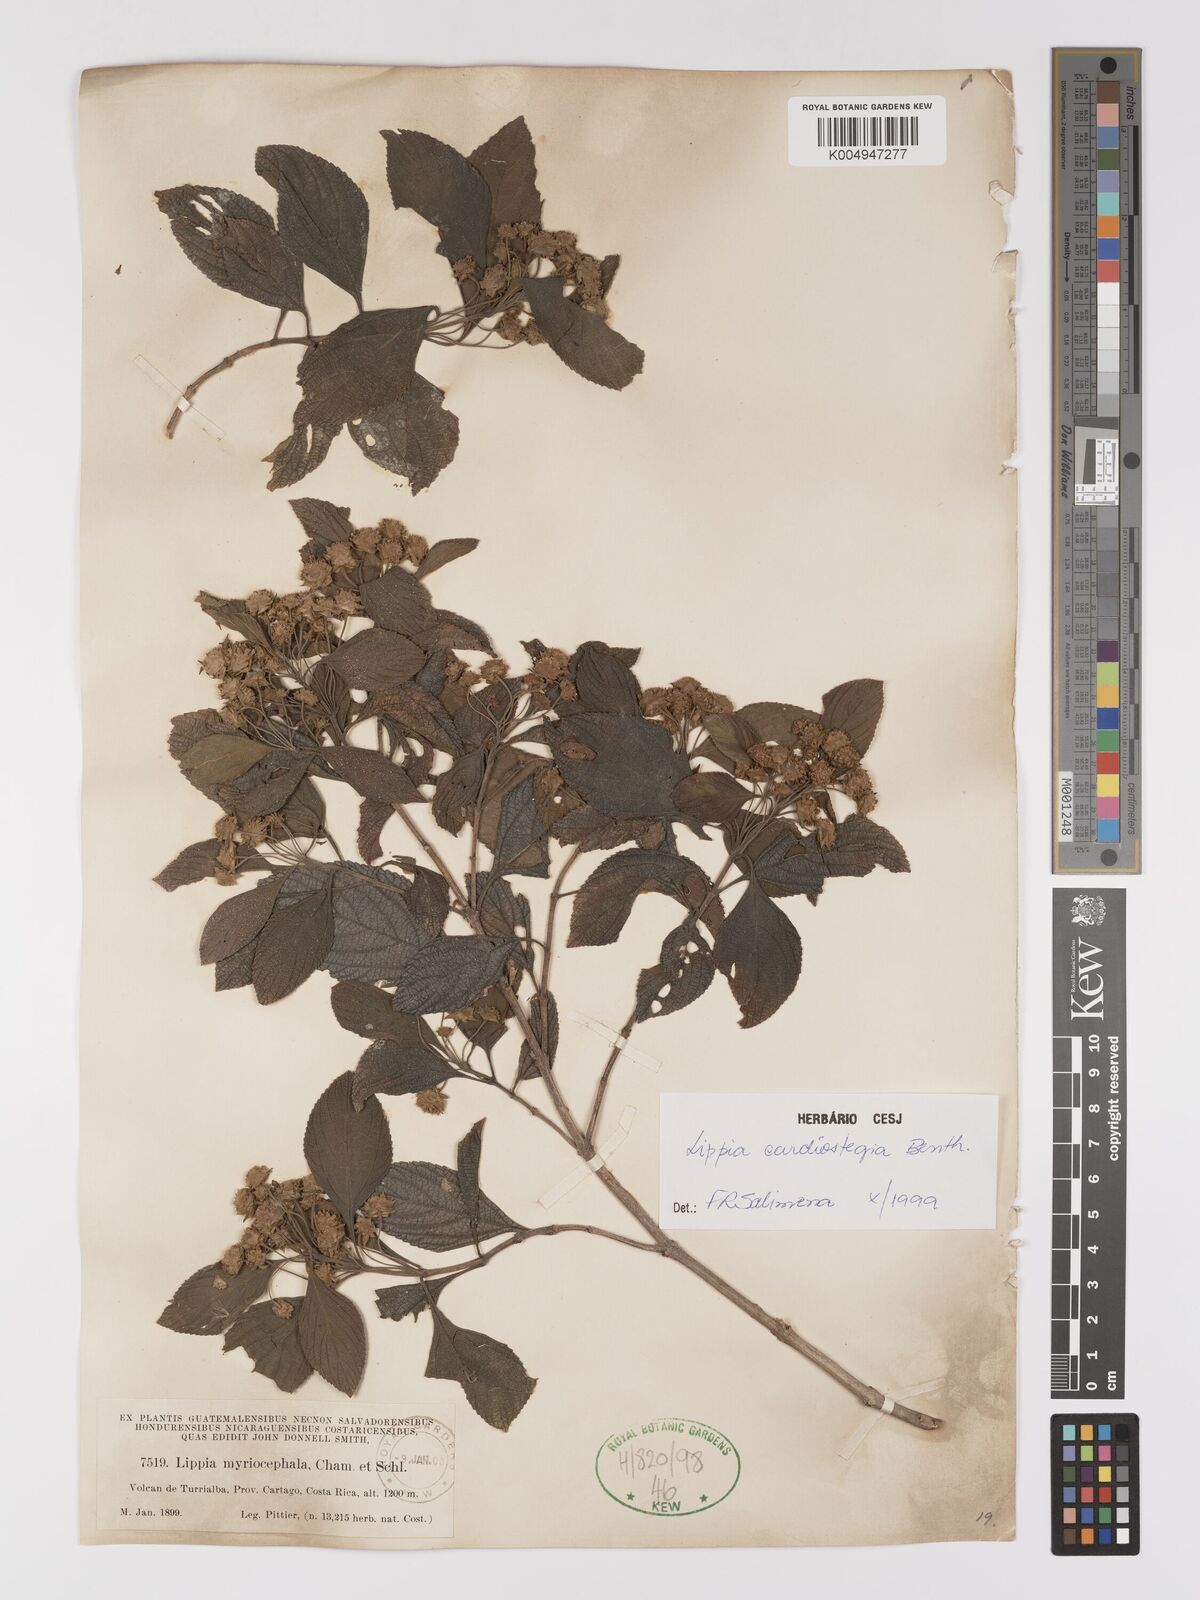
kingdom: Plantae
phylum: Tracheophyta
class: Magnoliopsida
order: Lamiales
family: Verbenaceae
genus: Lippia
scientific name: Lippia cardiostegia
